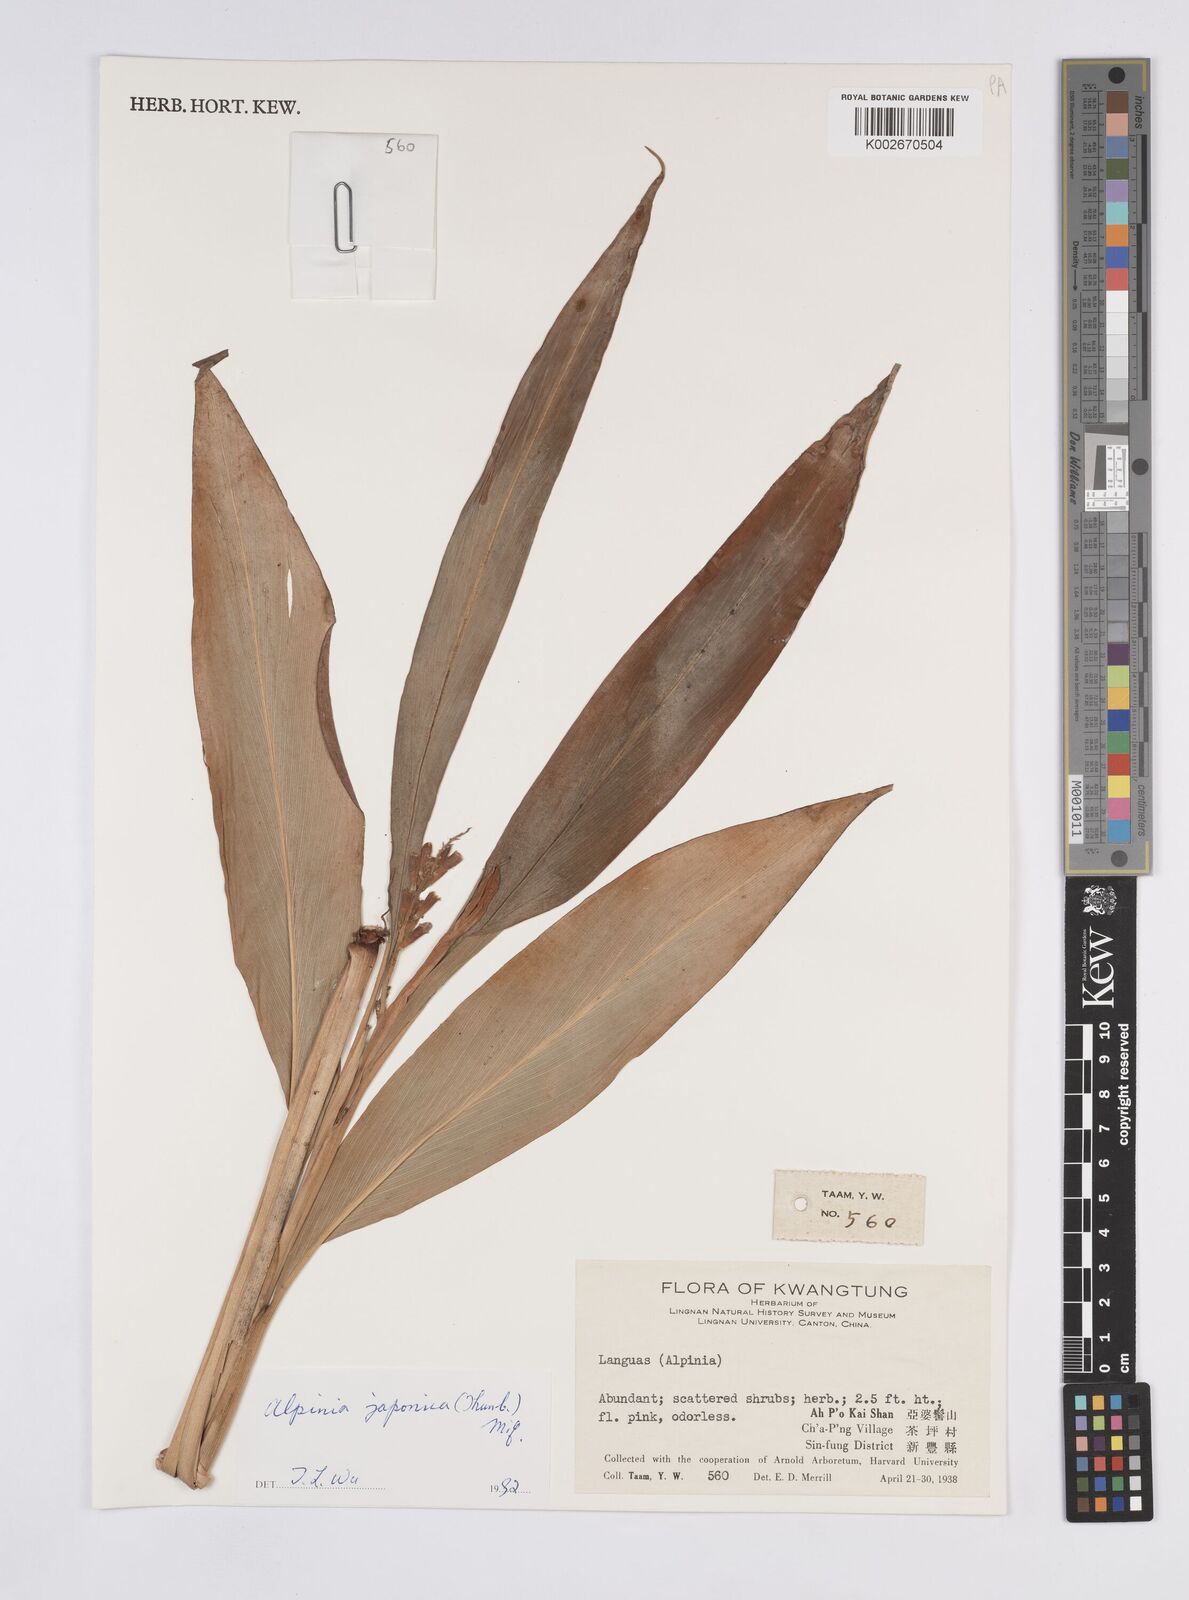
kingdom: Plantae
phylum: Tracheophyta
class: Liliopsida
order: Zingiberales
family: Zingiberaceae
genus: Alpinia
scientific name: Alpinia japonica
